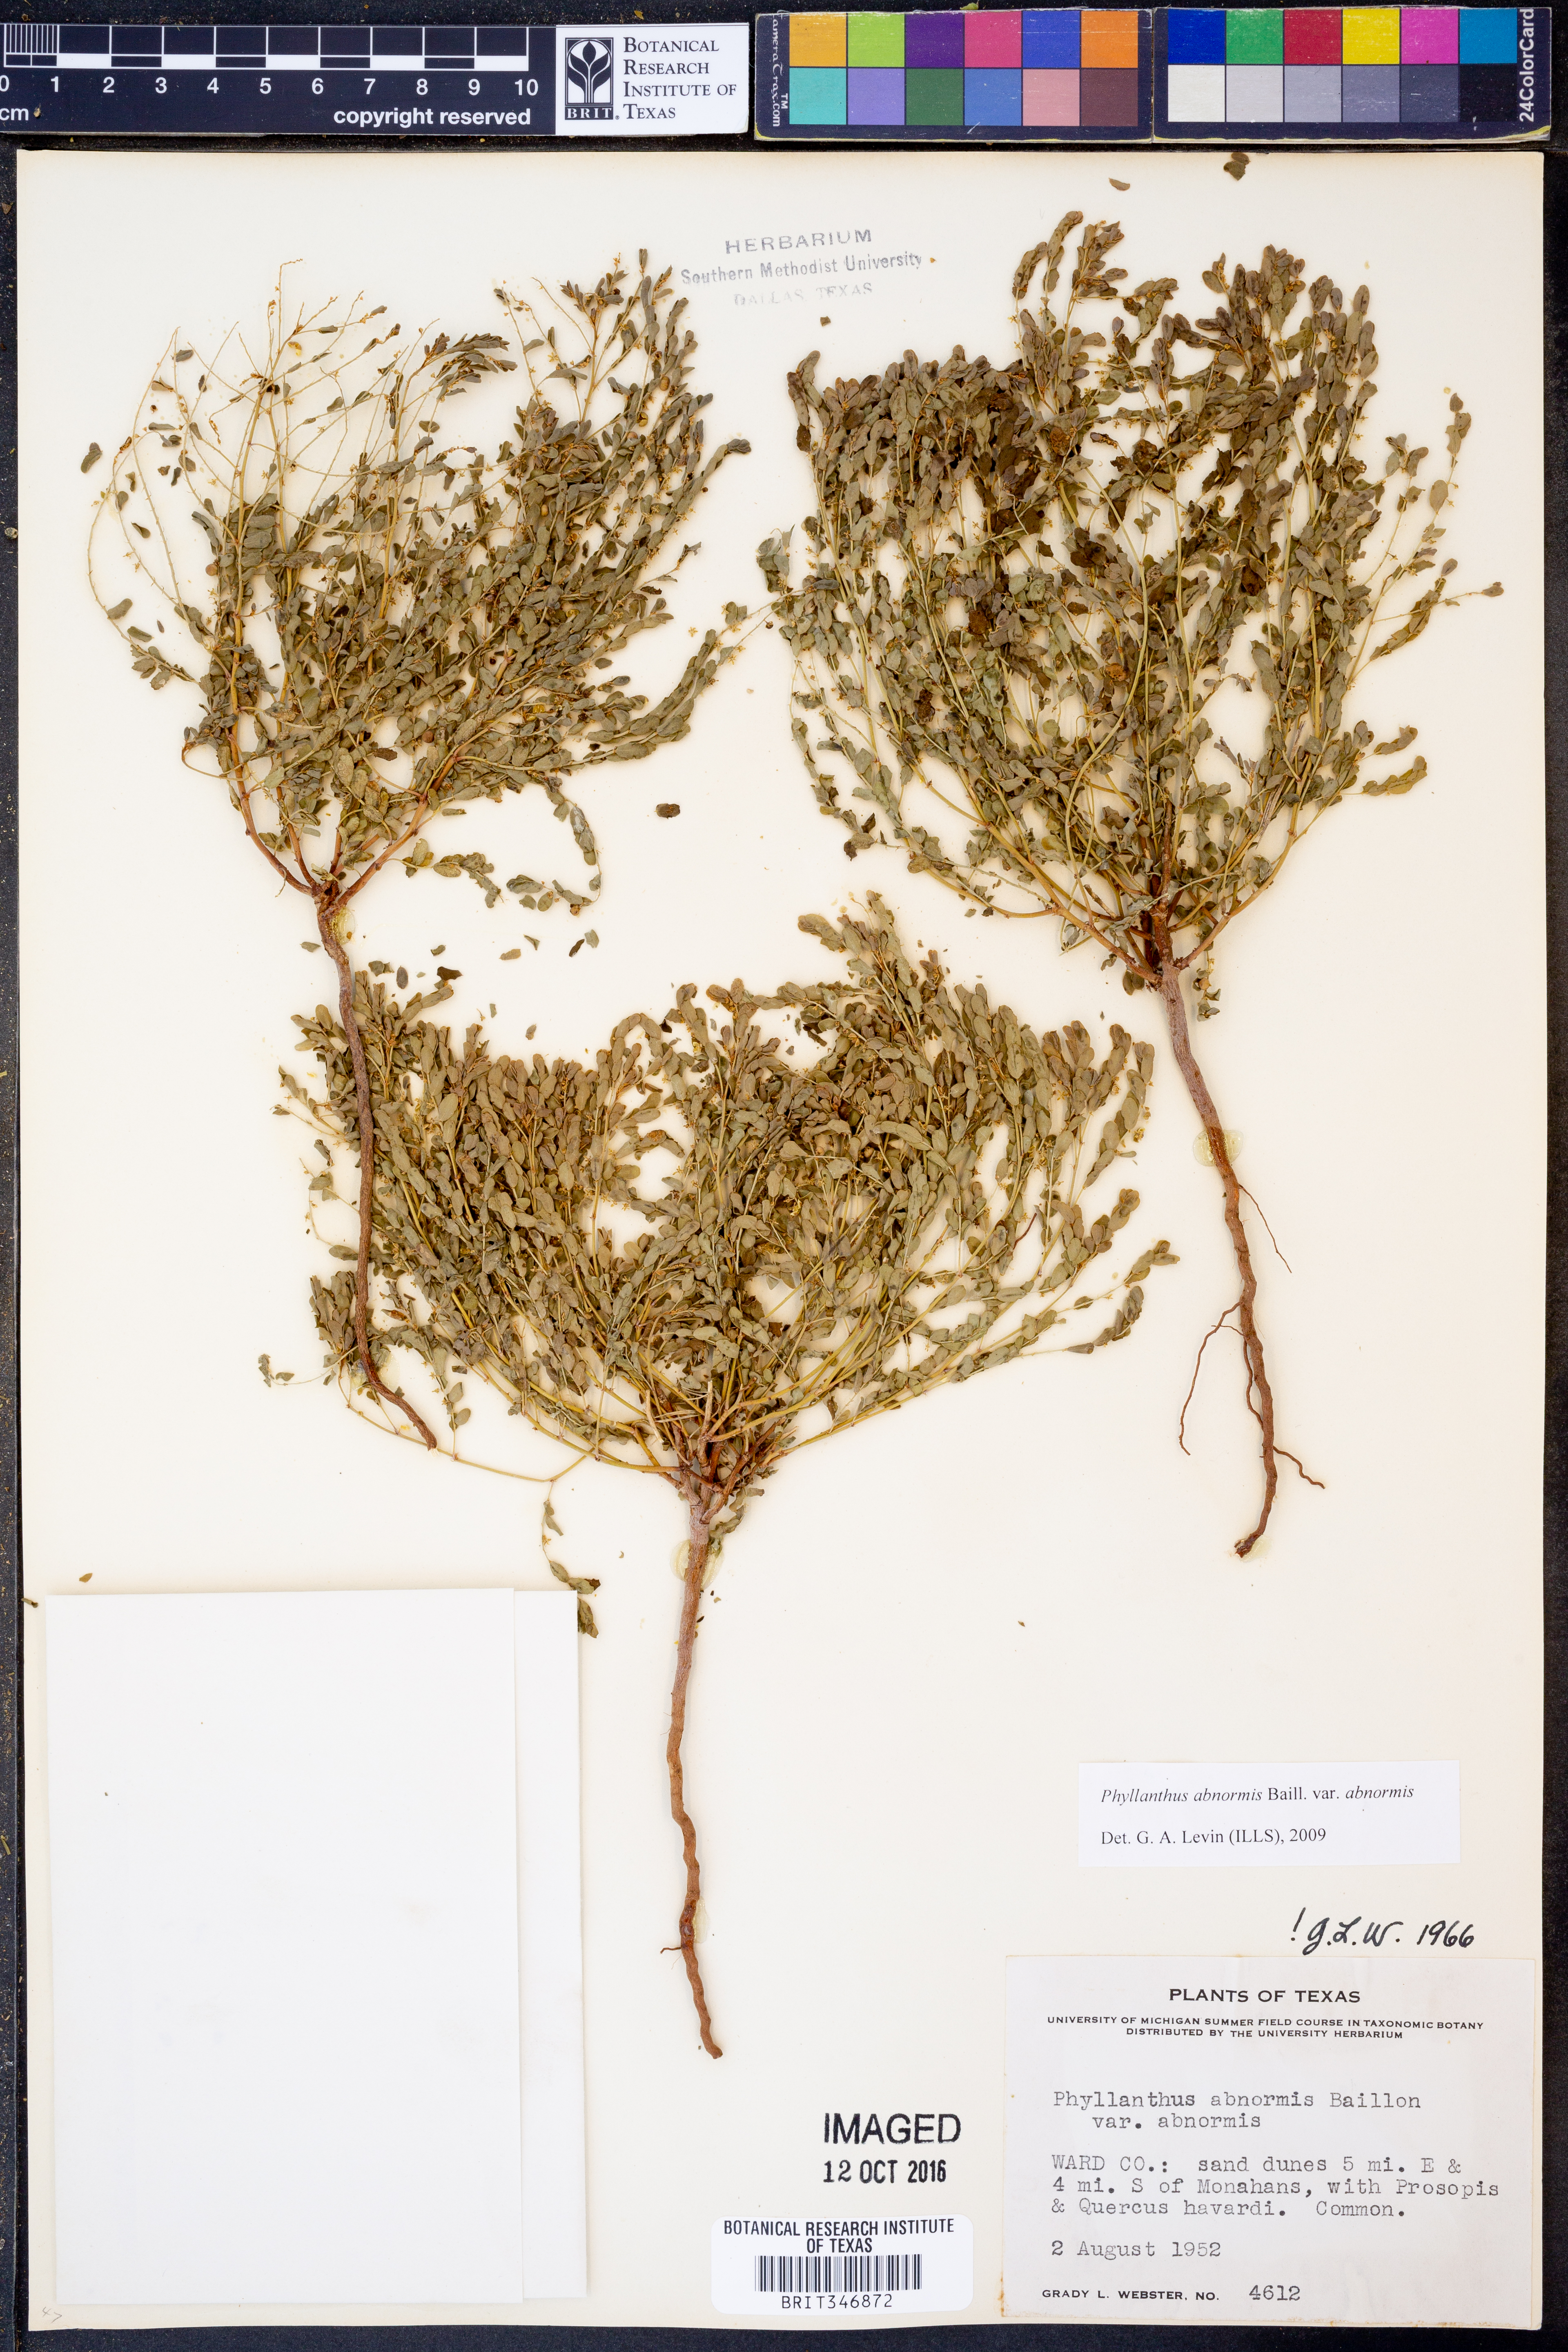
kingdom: Plantae
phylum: Tracheophyta
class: Magnoliopsida
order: Malpighiales
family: Phyllanthaceae
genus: Phyllanthus
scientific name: Phyllanthus abnormis
